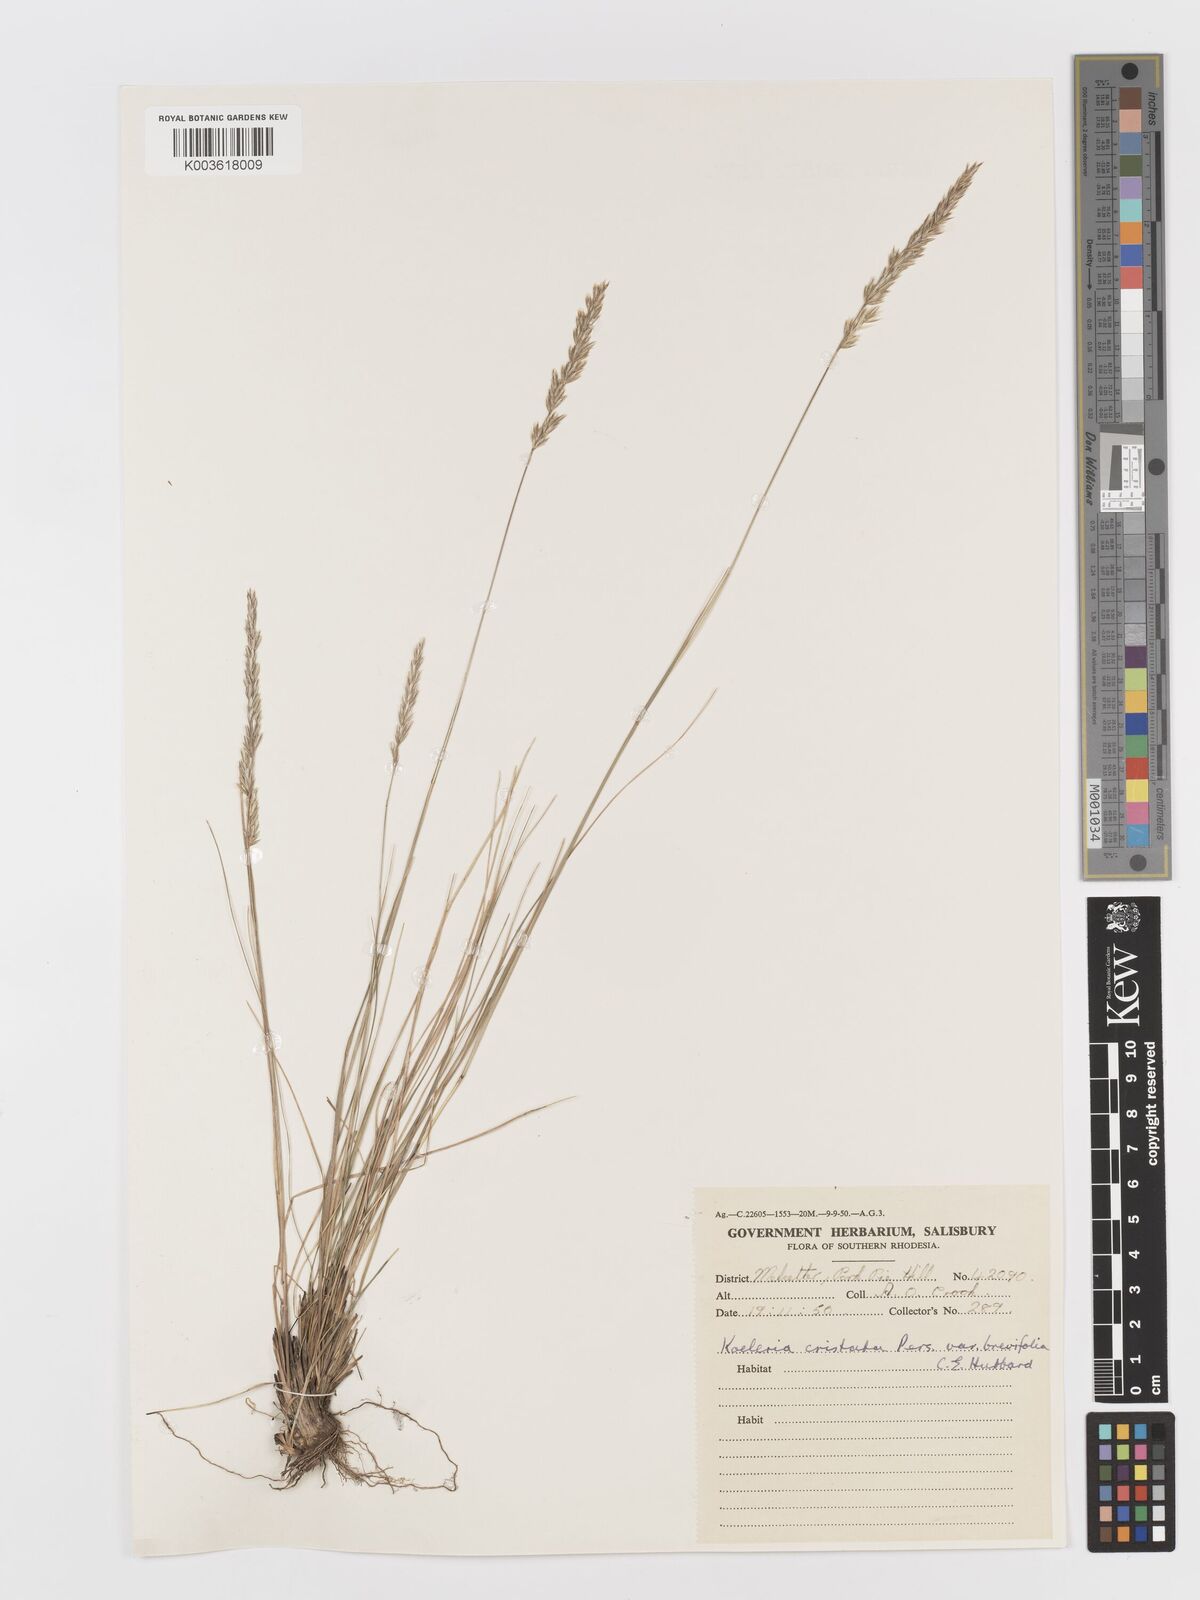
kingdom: Plantae
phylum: Tracheophyta
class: Liliopsida
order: Poales
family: Poaceae
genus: Koeleria
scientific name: Koeleria capensis
